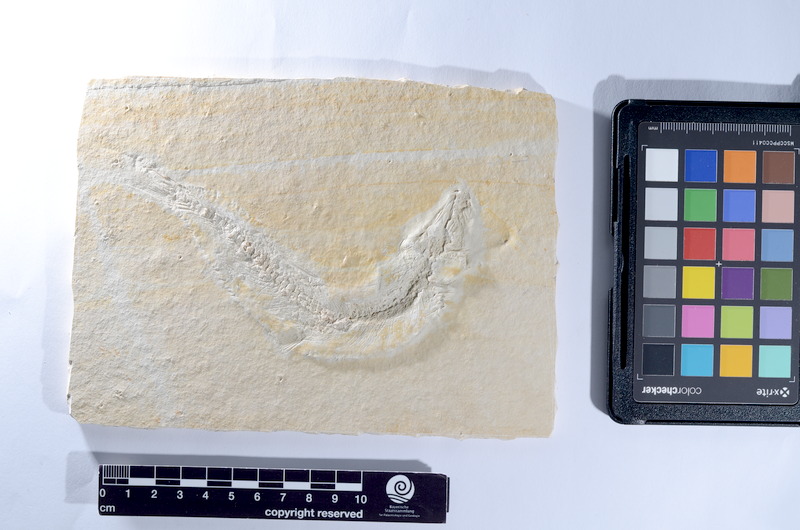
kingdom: Animalia
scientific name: Animalia
